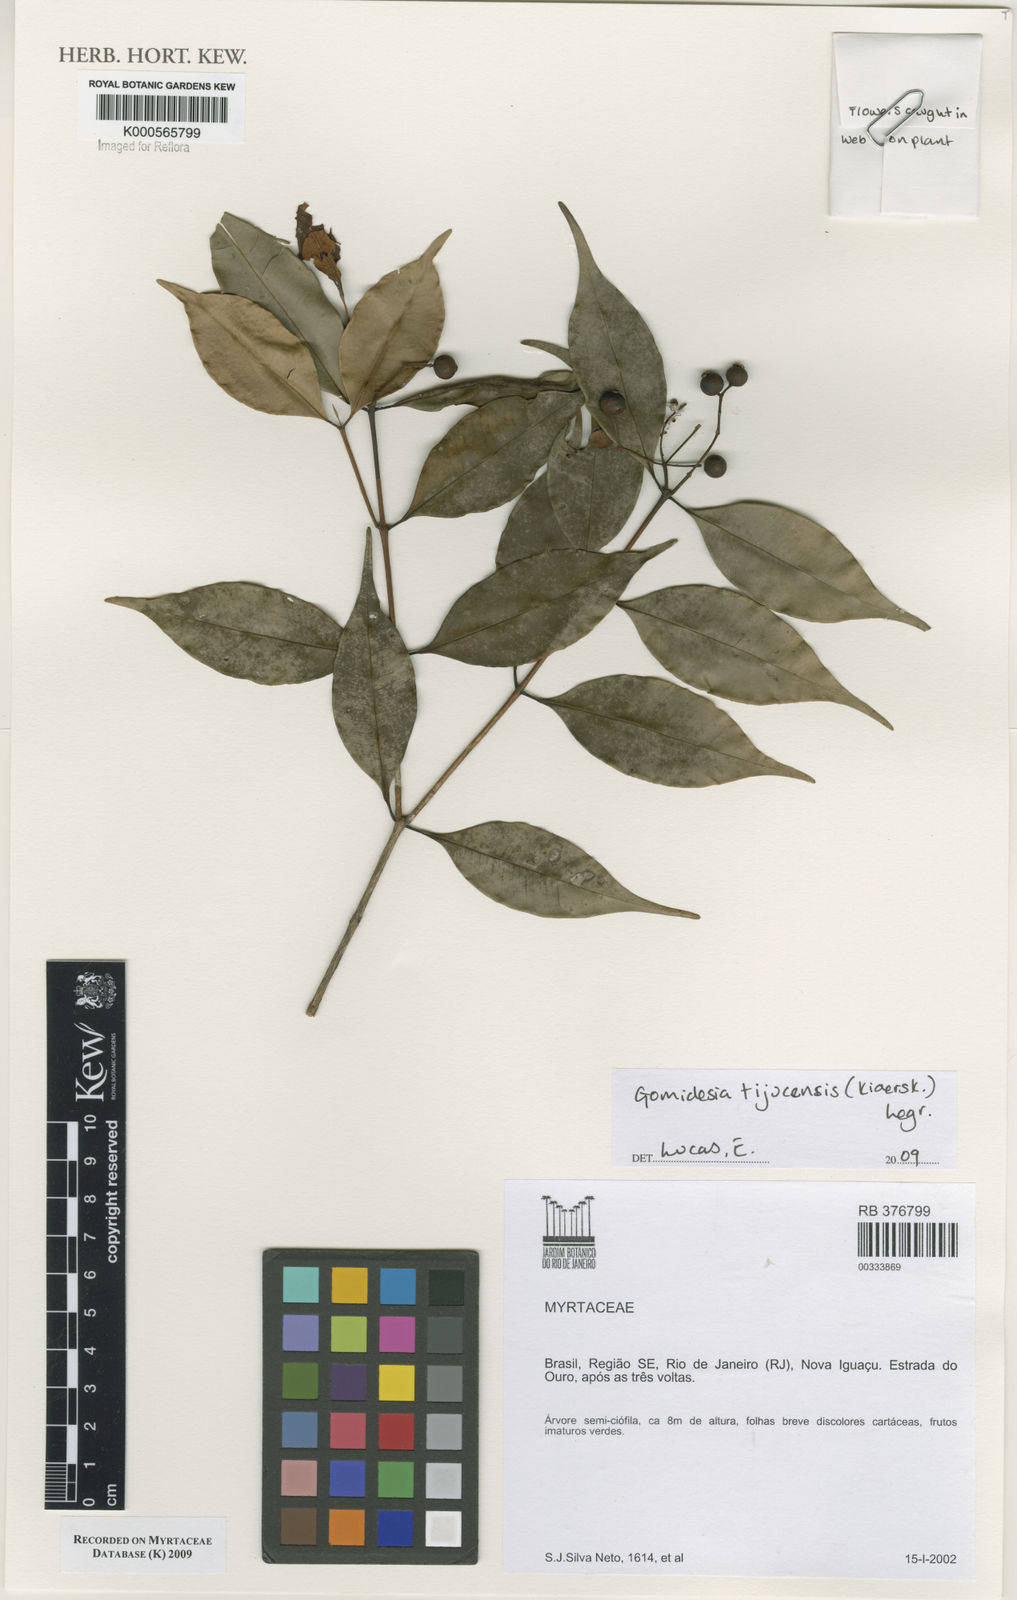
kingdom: Plantae
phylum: Tracheophyta
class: Magnoliopsida
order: Myrtales
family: Myrtaceae
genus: Myrcia
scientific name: Myrcia tijucensis
